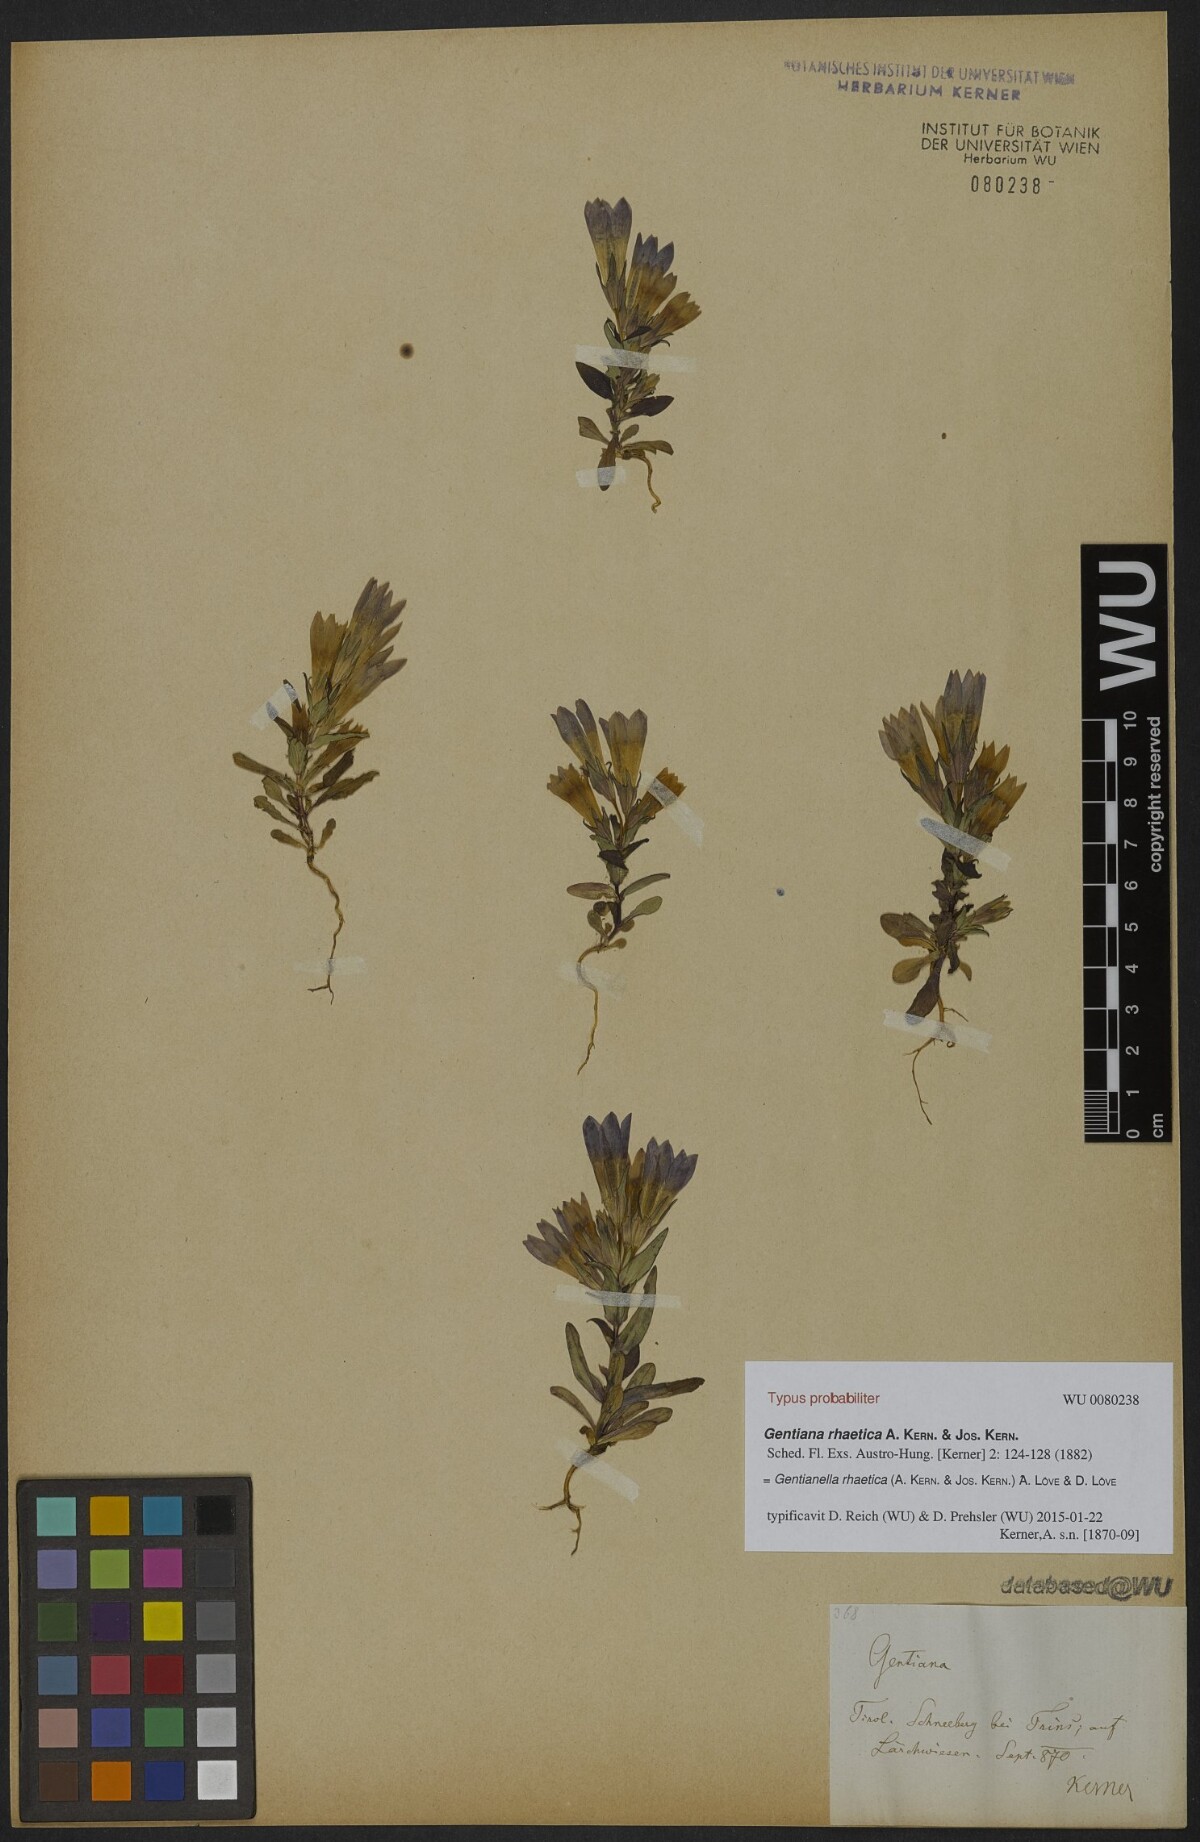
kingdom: Plantae
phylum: Tracheophyta
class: Magnoliopsida
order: Gentianales
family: Gentianaceae
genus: Gentianella
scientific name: Gentianella rhaetica
